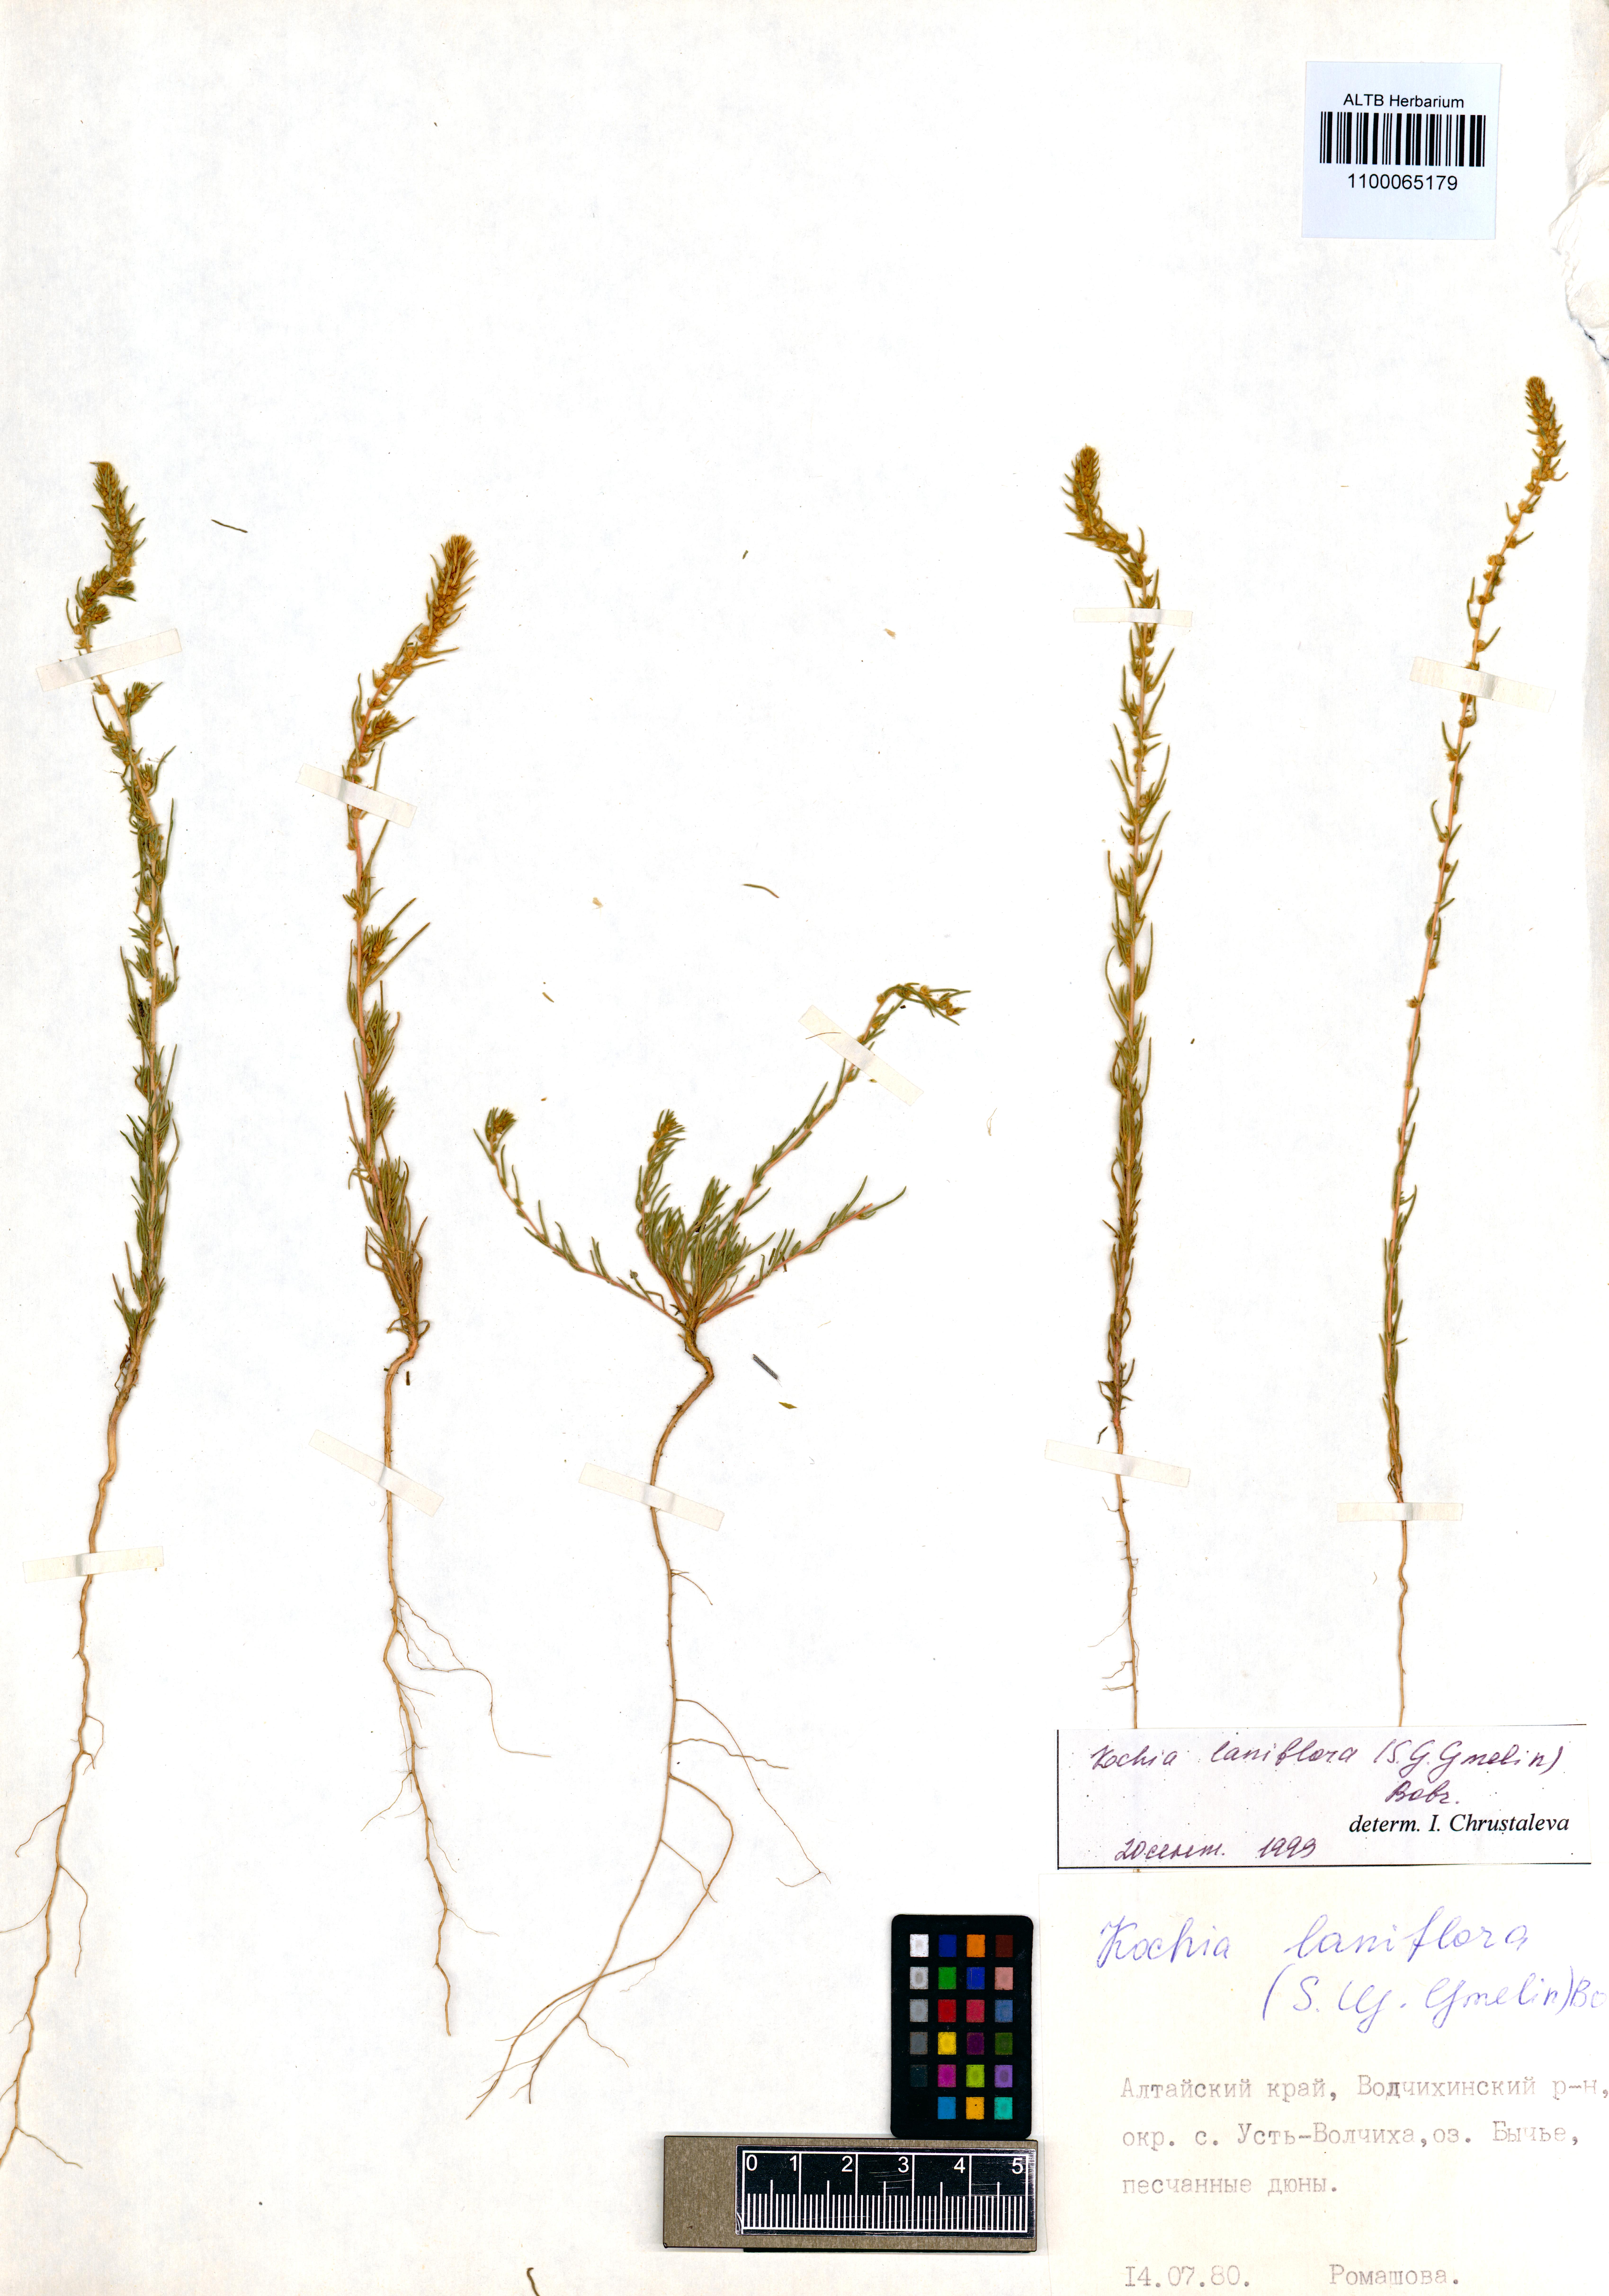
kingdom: Plantae
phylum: Tracheophyta
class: Magnoliopsida
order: Caryophyllales
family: Amaranthaceae
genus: Bassia
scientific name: Bassia laniflora
